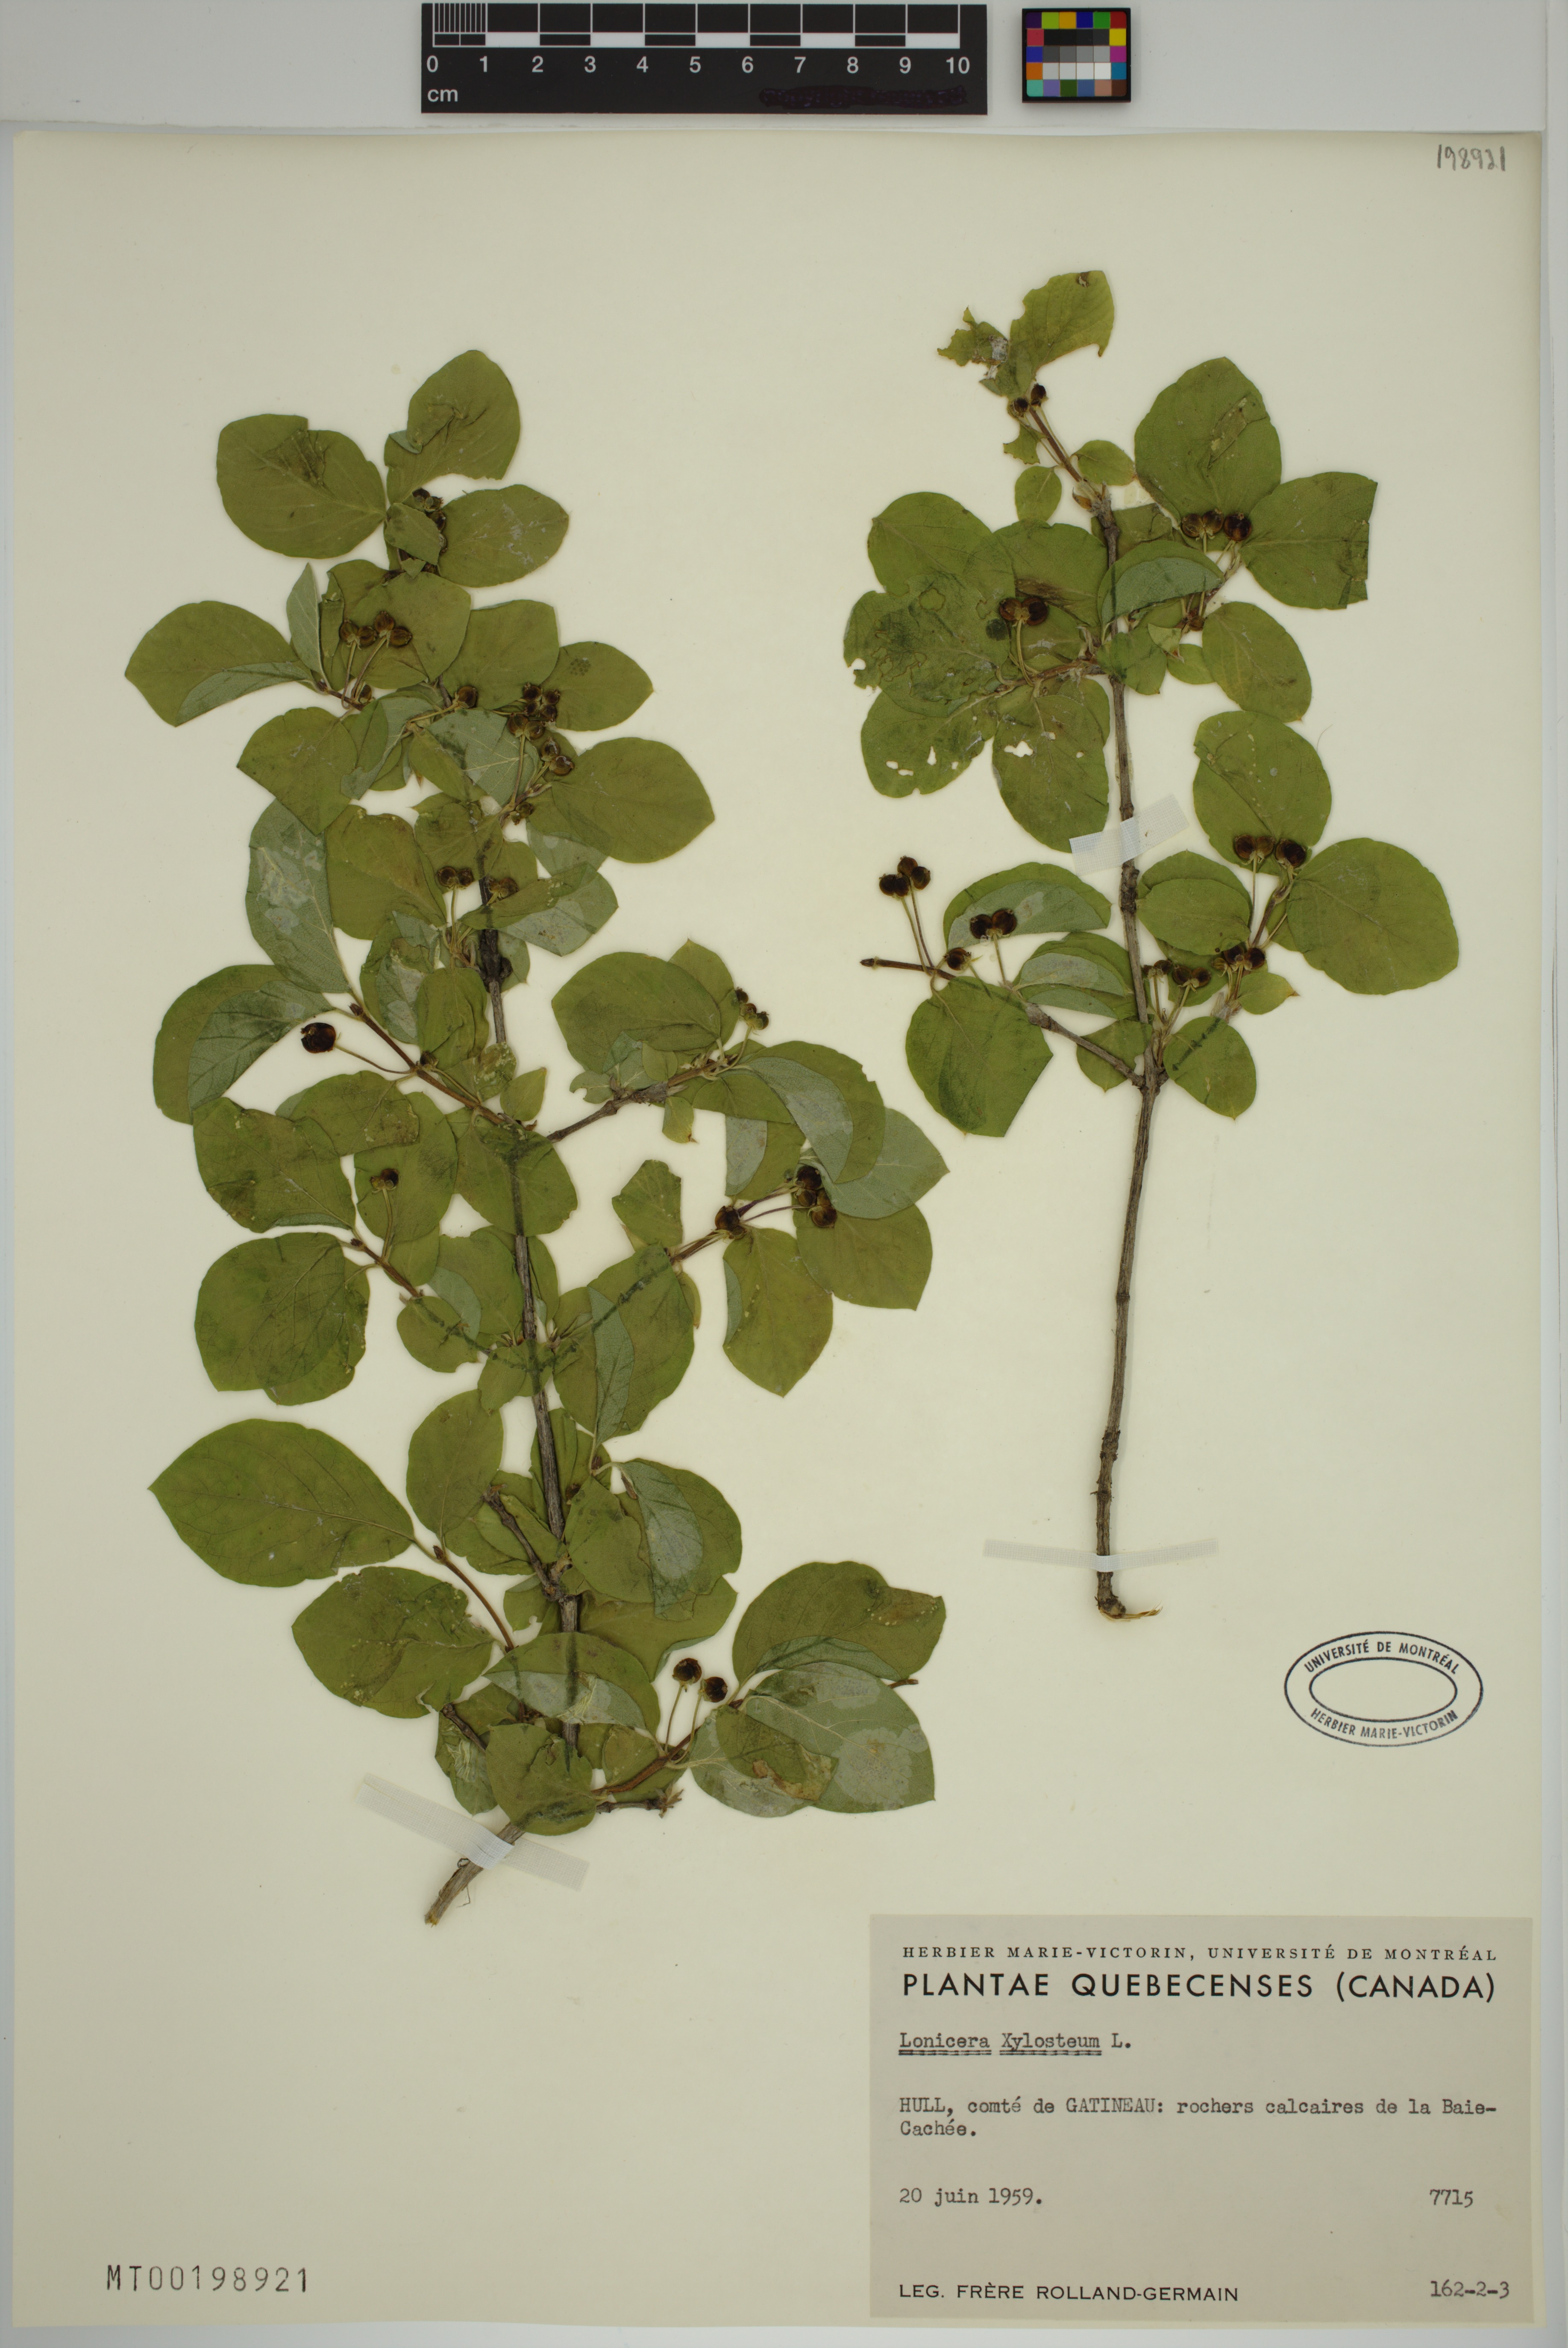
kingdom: Plantae
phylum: Tracheophyta
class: Magnoliopsida
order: Dipsacales
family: Caprifoliaceae
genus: Lonicera
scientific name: Lonicera xylosteum
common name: Fly honeysuckle
